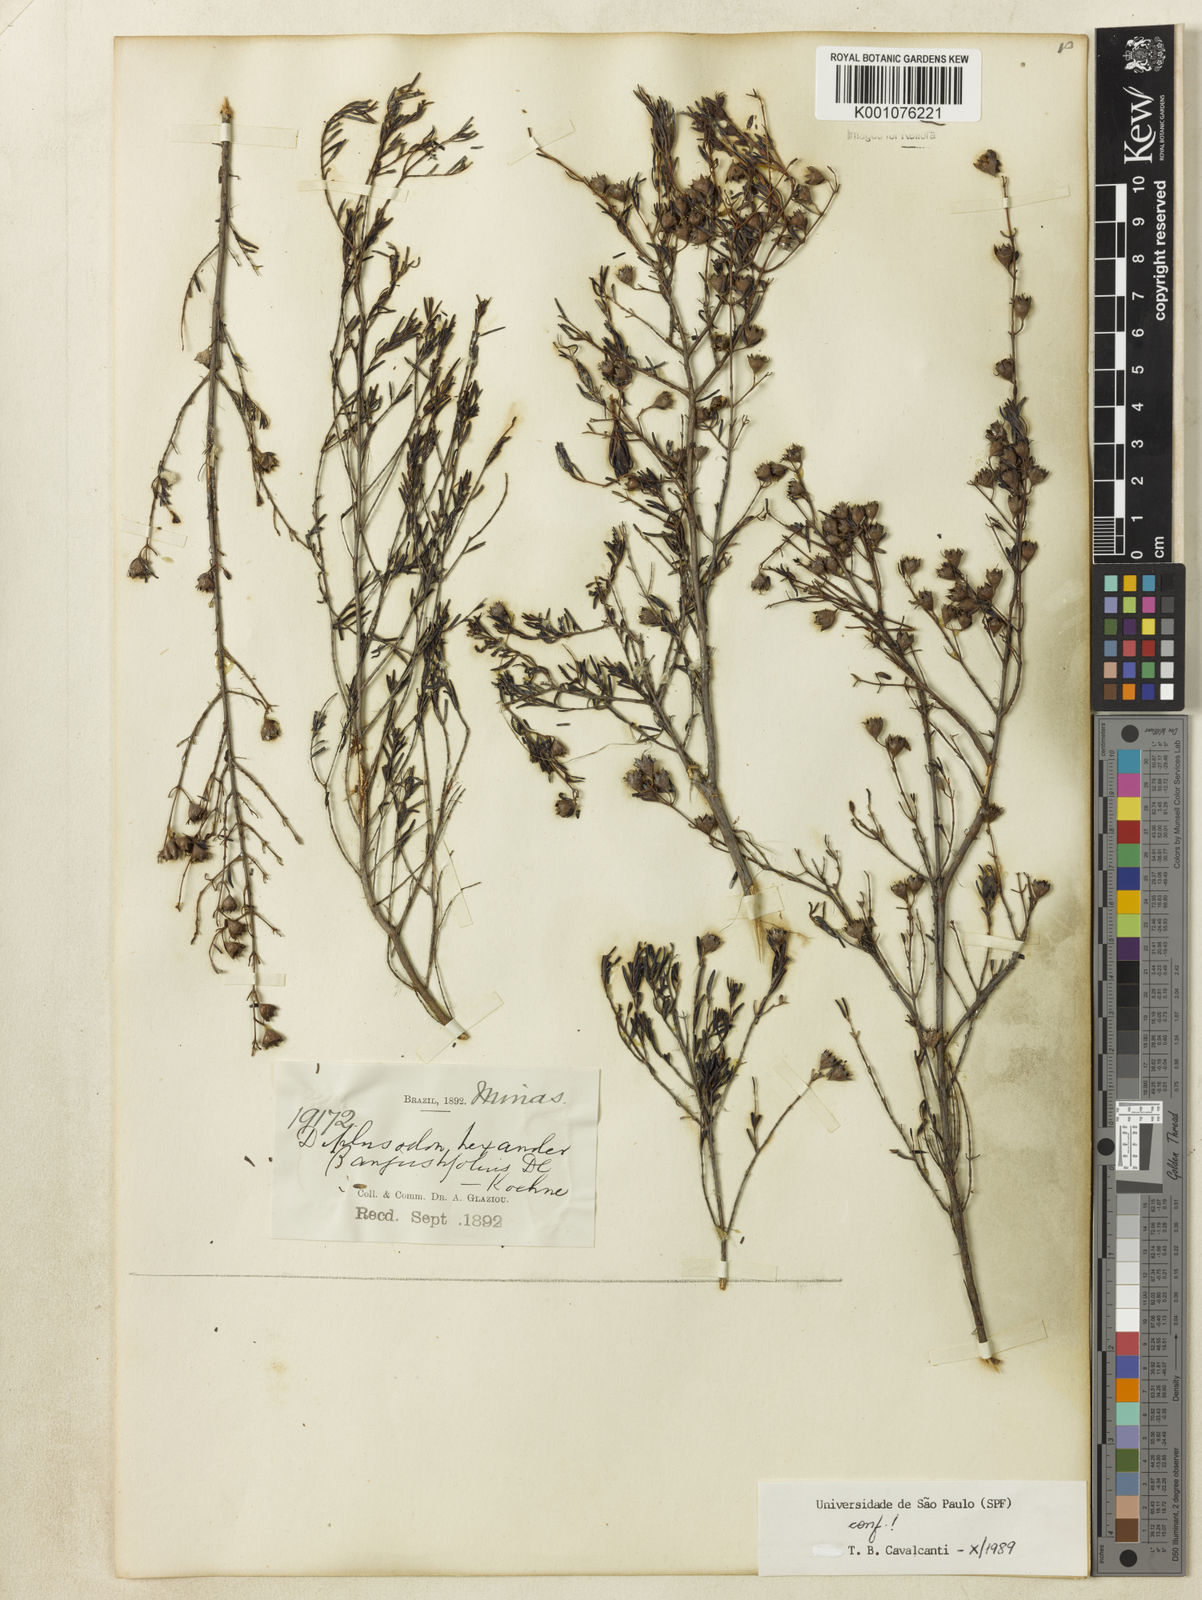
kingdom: Plantae
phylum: Tracheophyta
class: Magnoliopsida
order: Myrtales
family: Lythraceae
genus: Diplusodon
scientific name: Diplusodon hexander
